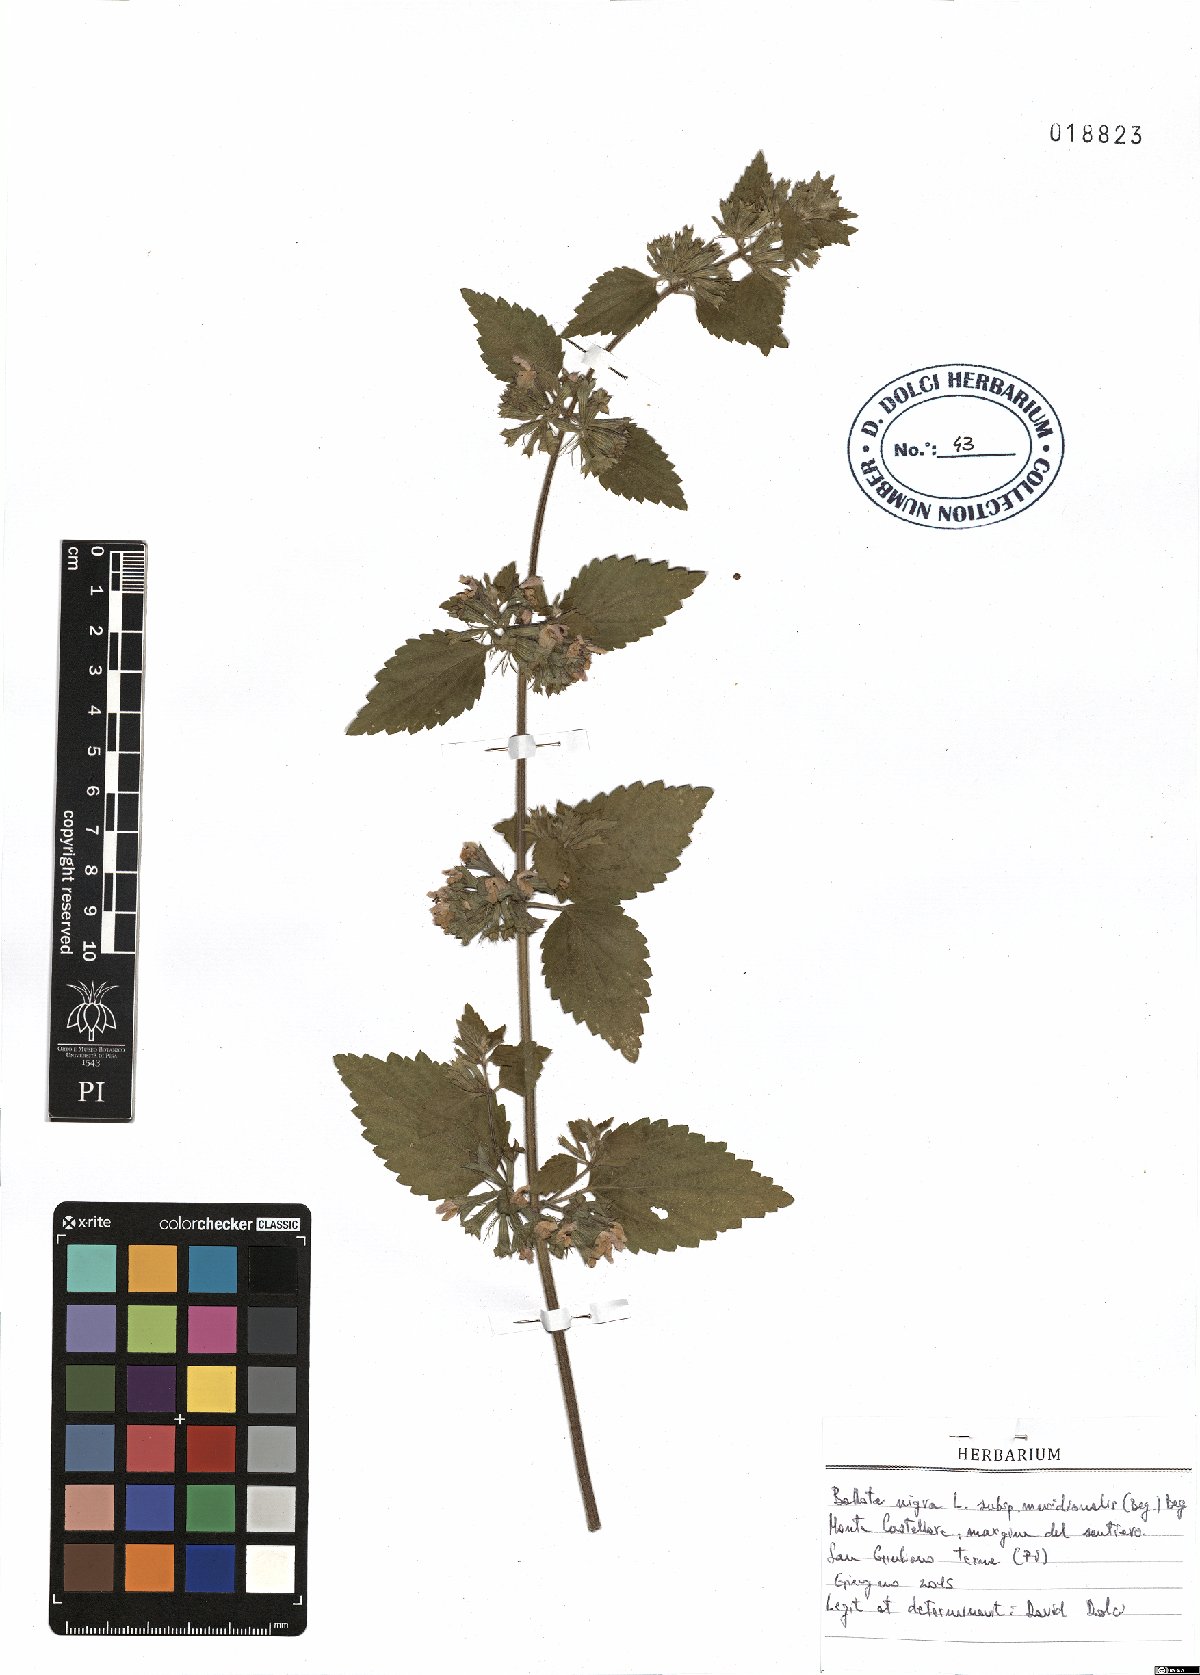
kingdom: Plantae
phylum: Tracheophyta
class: Magnoliopsida
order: Lamiales
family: Lamiaceae
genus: Ballota
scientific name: Ballota nigra
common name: Black horehound
